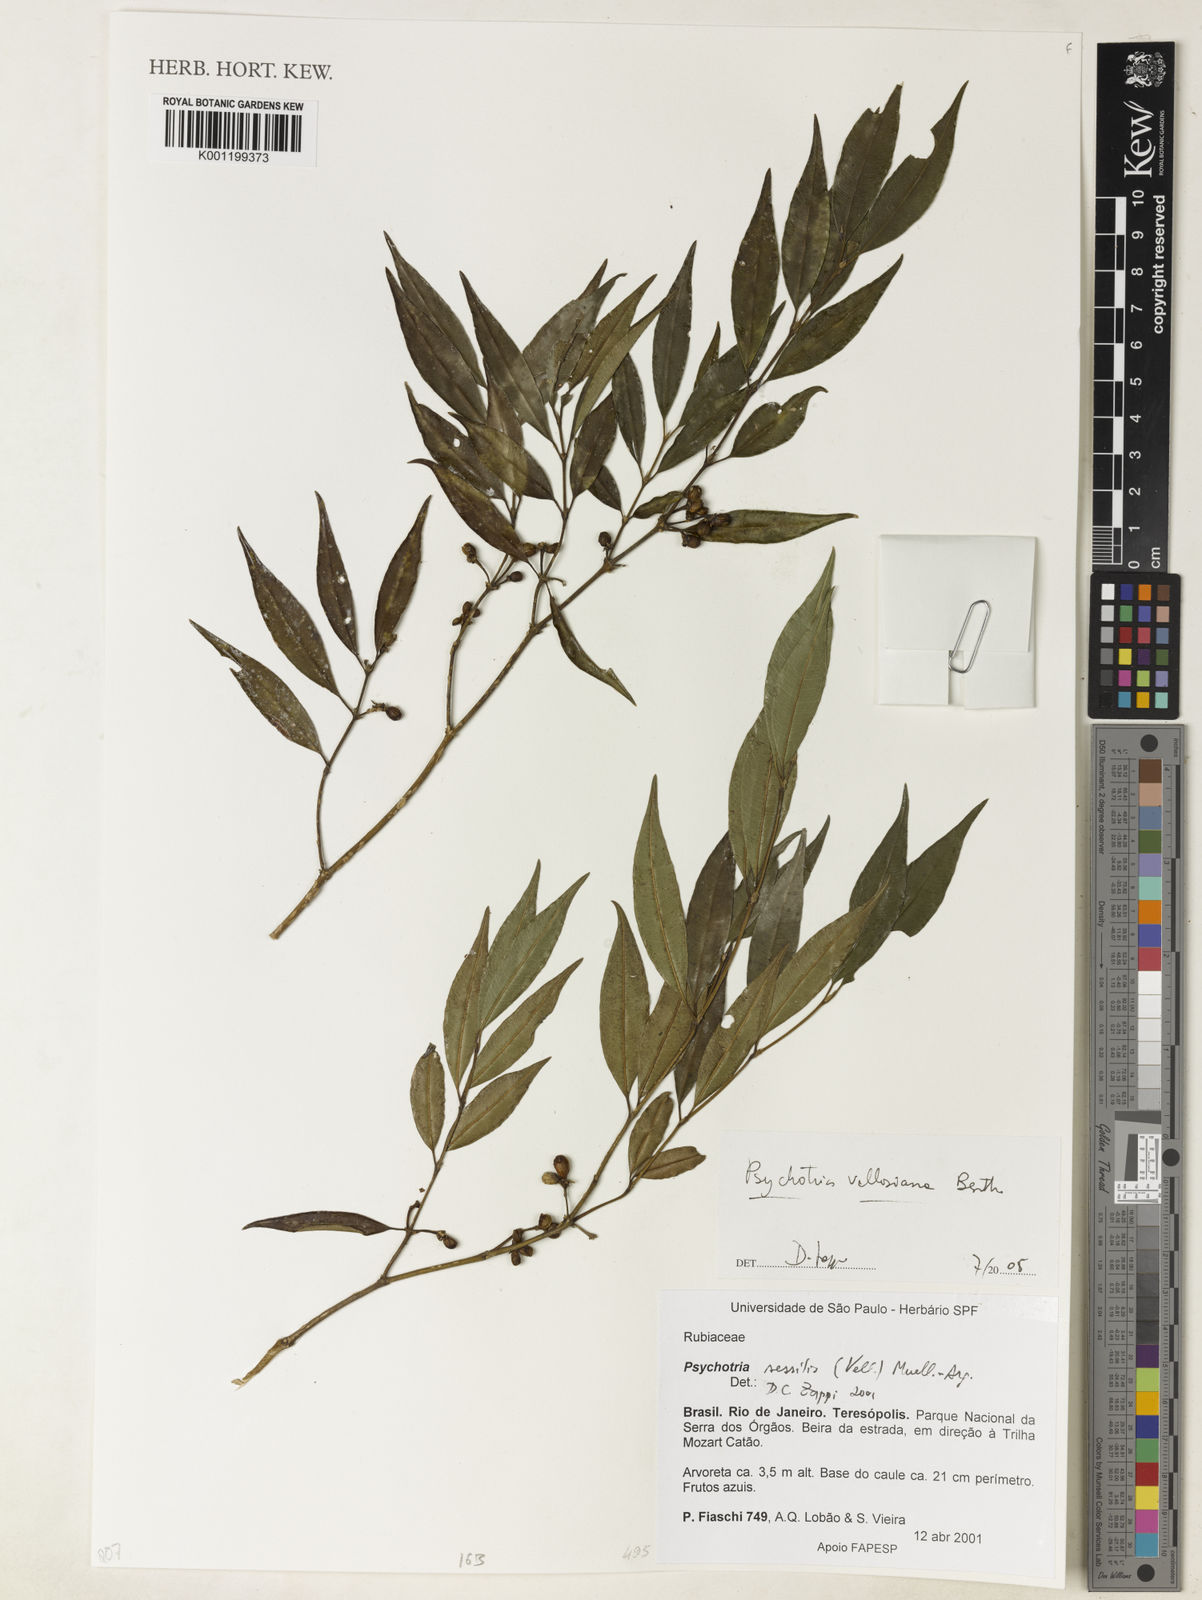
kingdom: Plantae
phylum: Tracheophyta
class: Magnoliopsida
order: Gentianales
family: Rubiaceae
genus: Palicourea
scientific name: Palicourea sessilis
